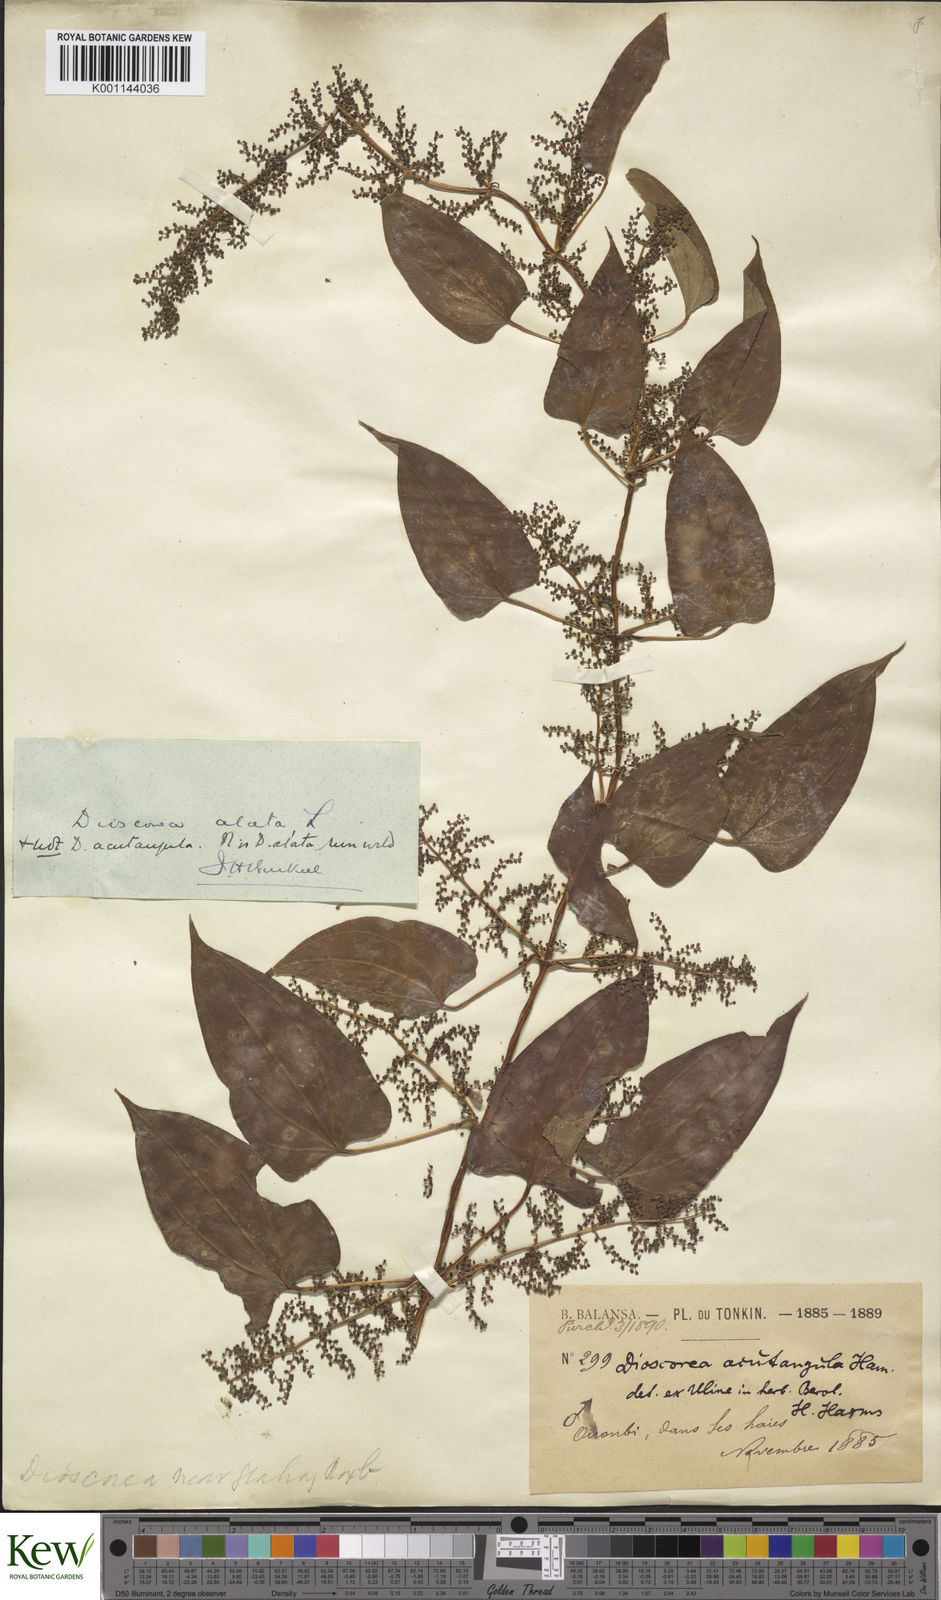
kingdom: Plantae
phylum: Tracheophyta
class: Liliopsida
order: Dioscoreales
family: Dioscoreaceae
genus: Dioscorea
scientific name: Dioscorea alata
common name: Water yam
